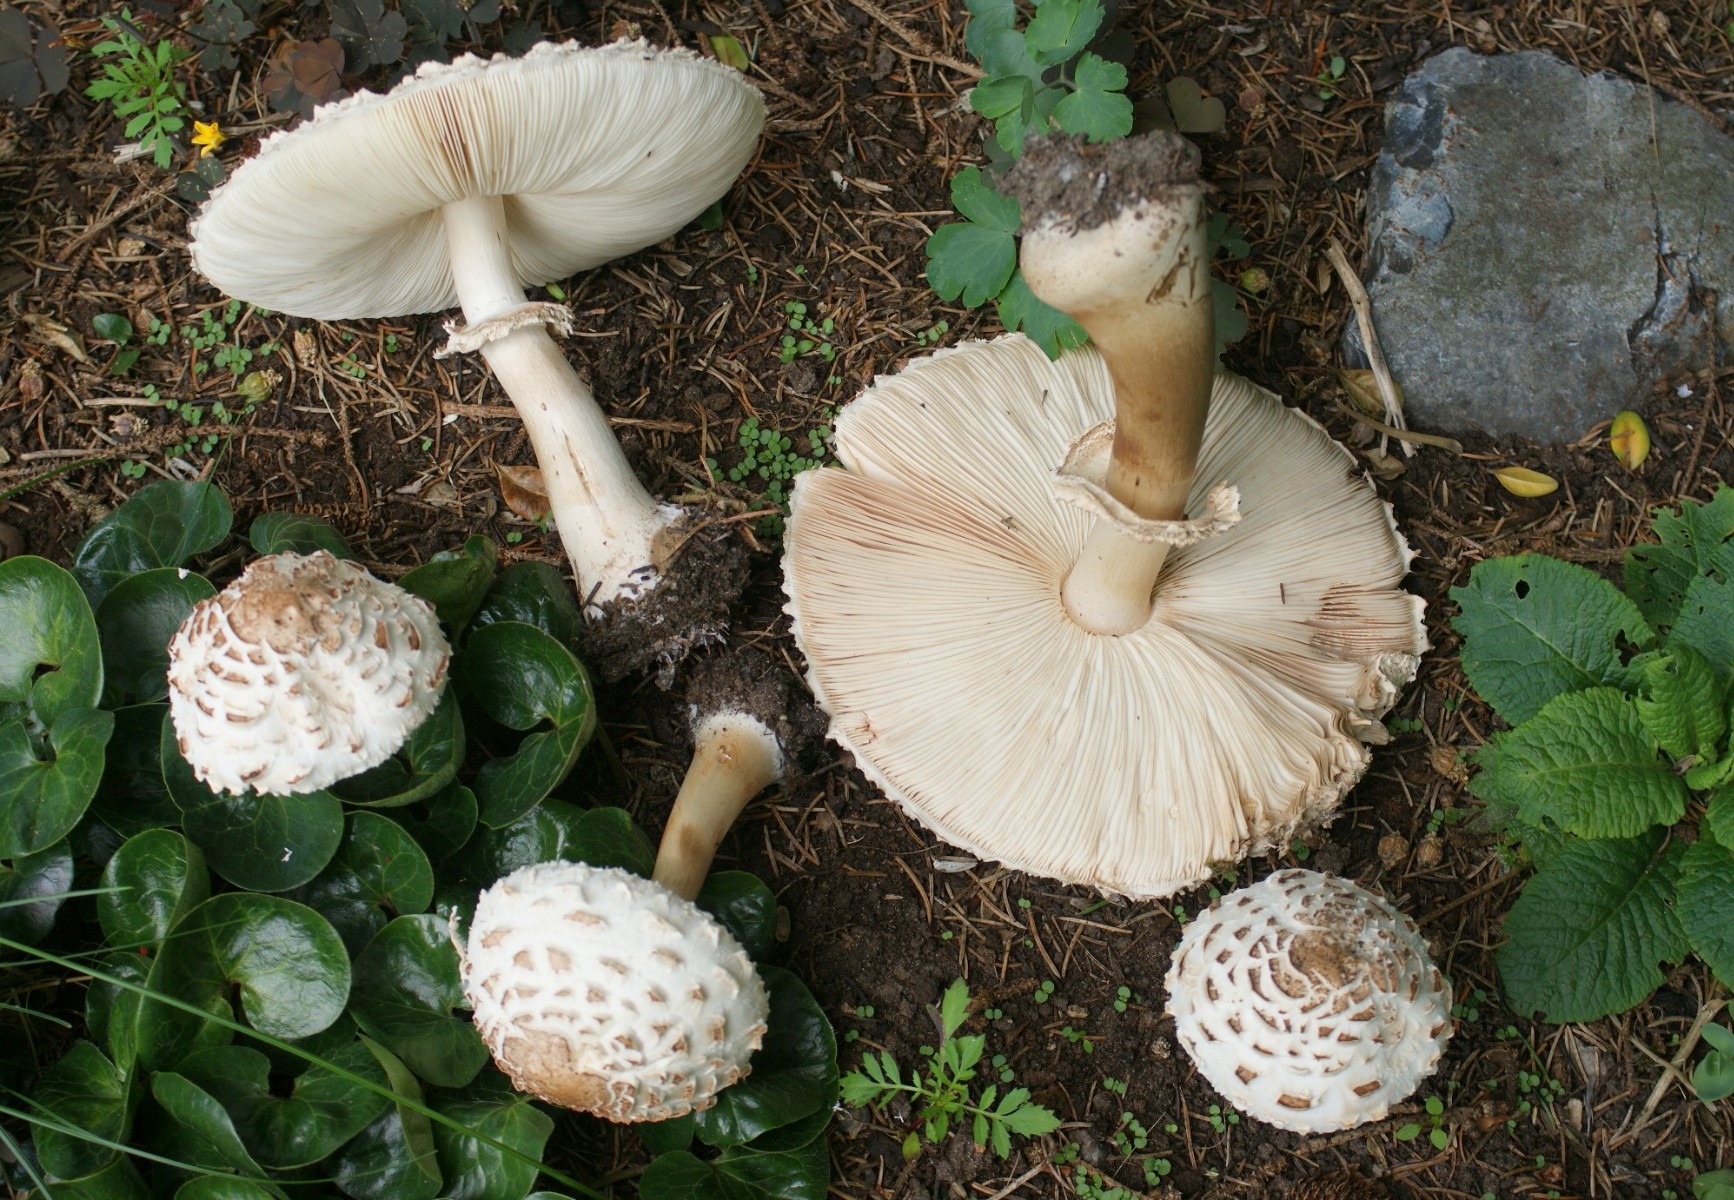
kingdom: Fungi
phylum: Basidiomycota
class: Agaricomycetes
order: Agaricales
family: Agaricaceae
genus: Chlorophyllum
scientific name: Chlorophyllum rhacodes
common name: ægte rabarberhat
